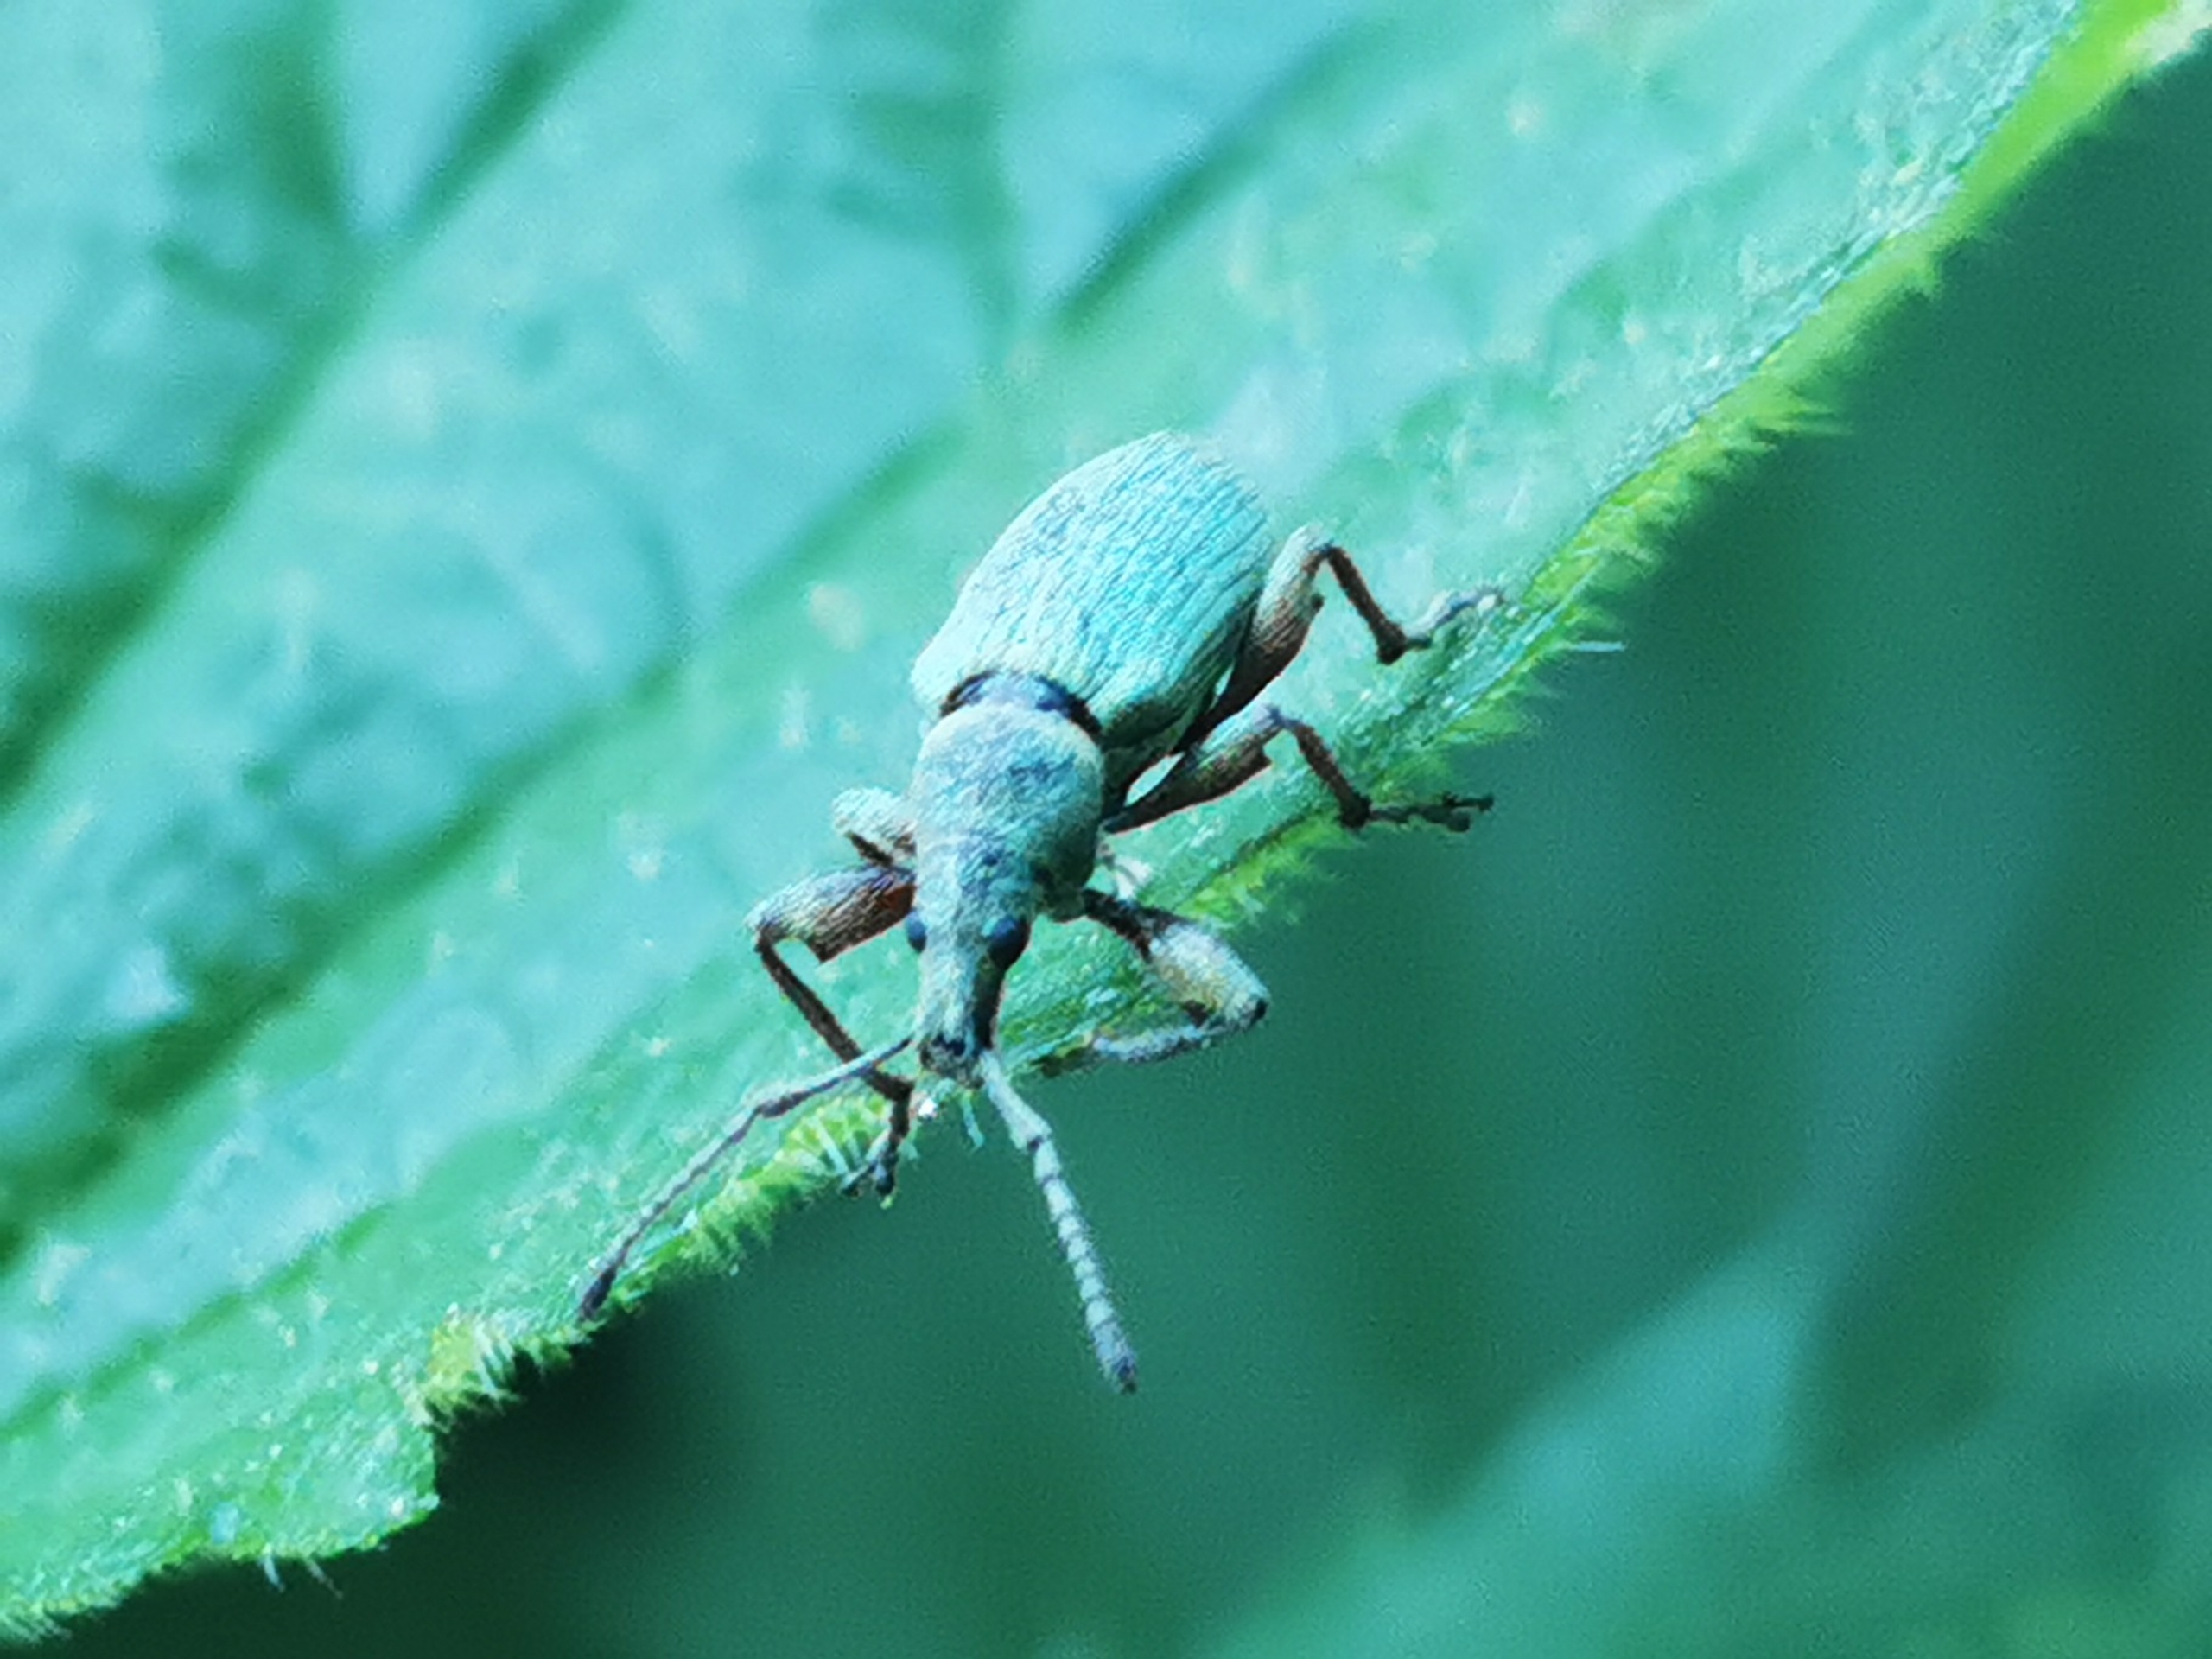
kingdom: Animalia
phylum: Arthropoda
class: Insecta
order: Coleoptera
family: Curculionidae
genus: Phyllobius
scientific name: Phyllobius pomaceus
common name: Nældesnudebille
